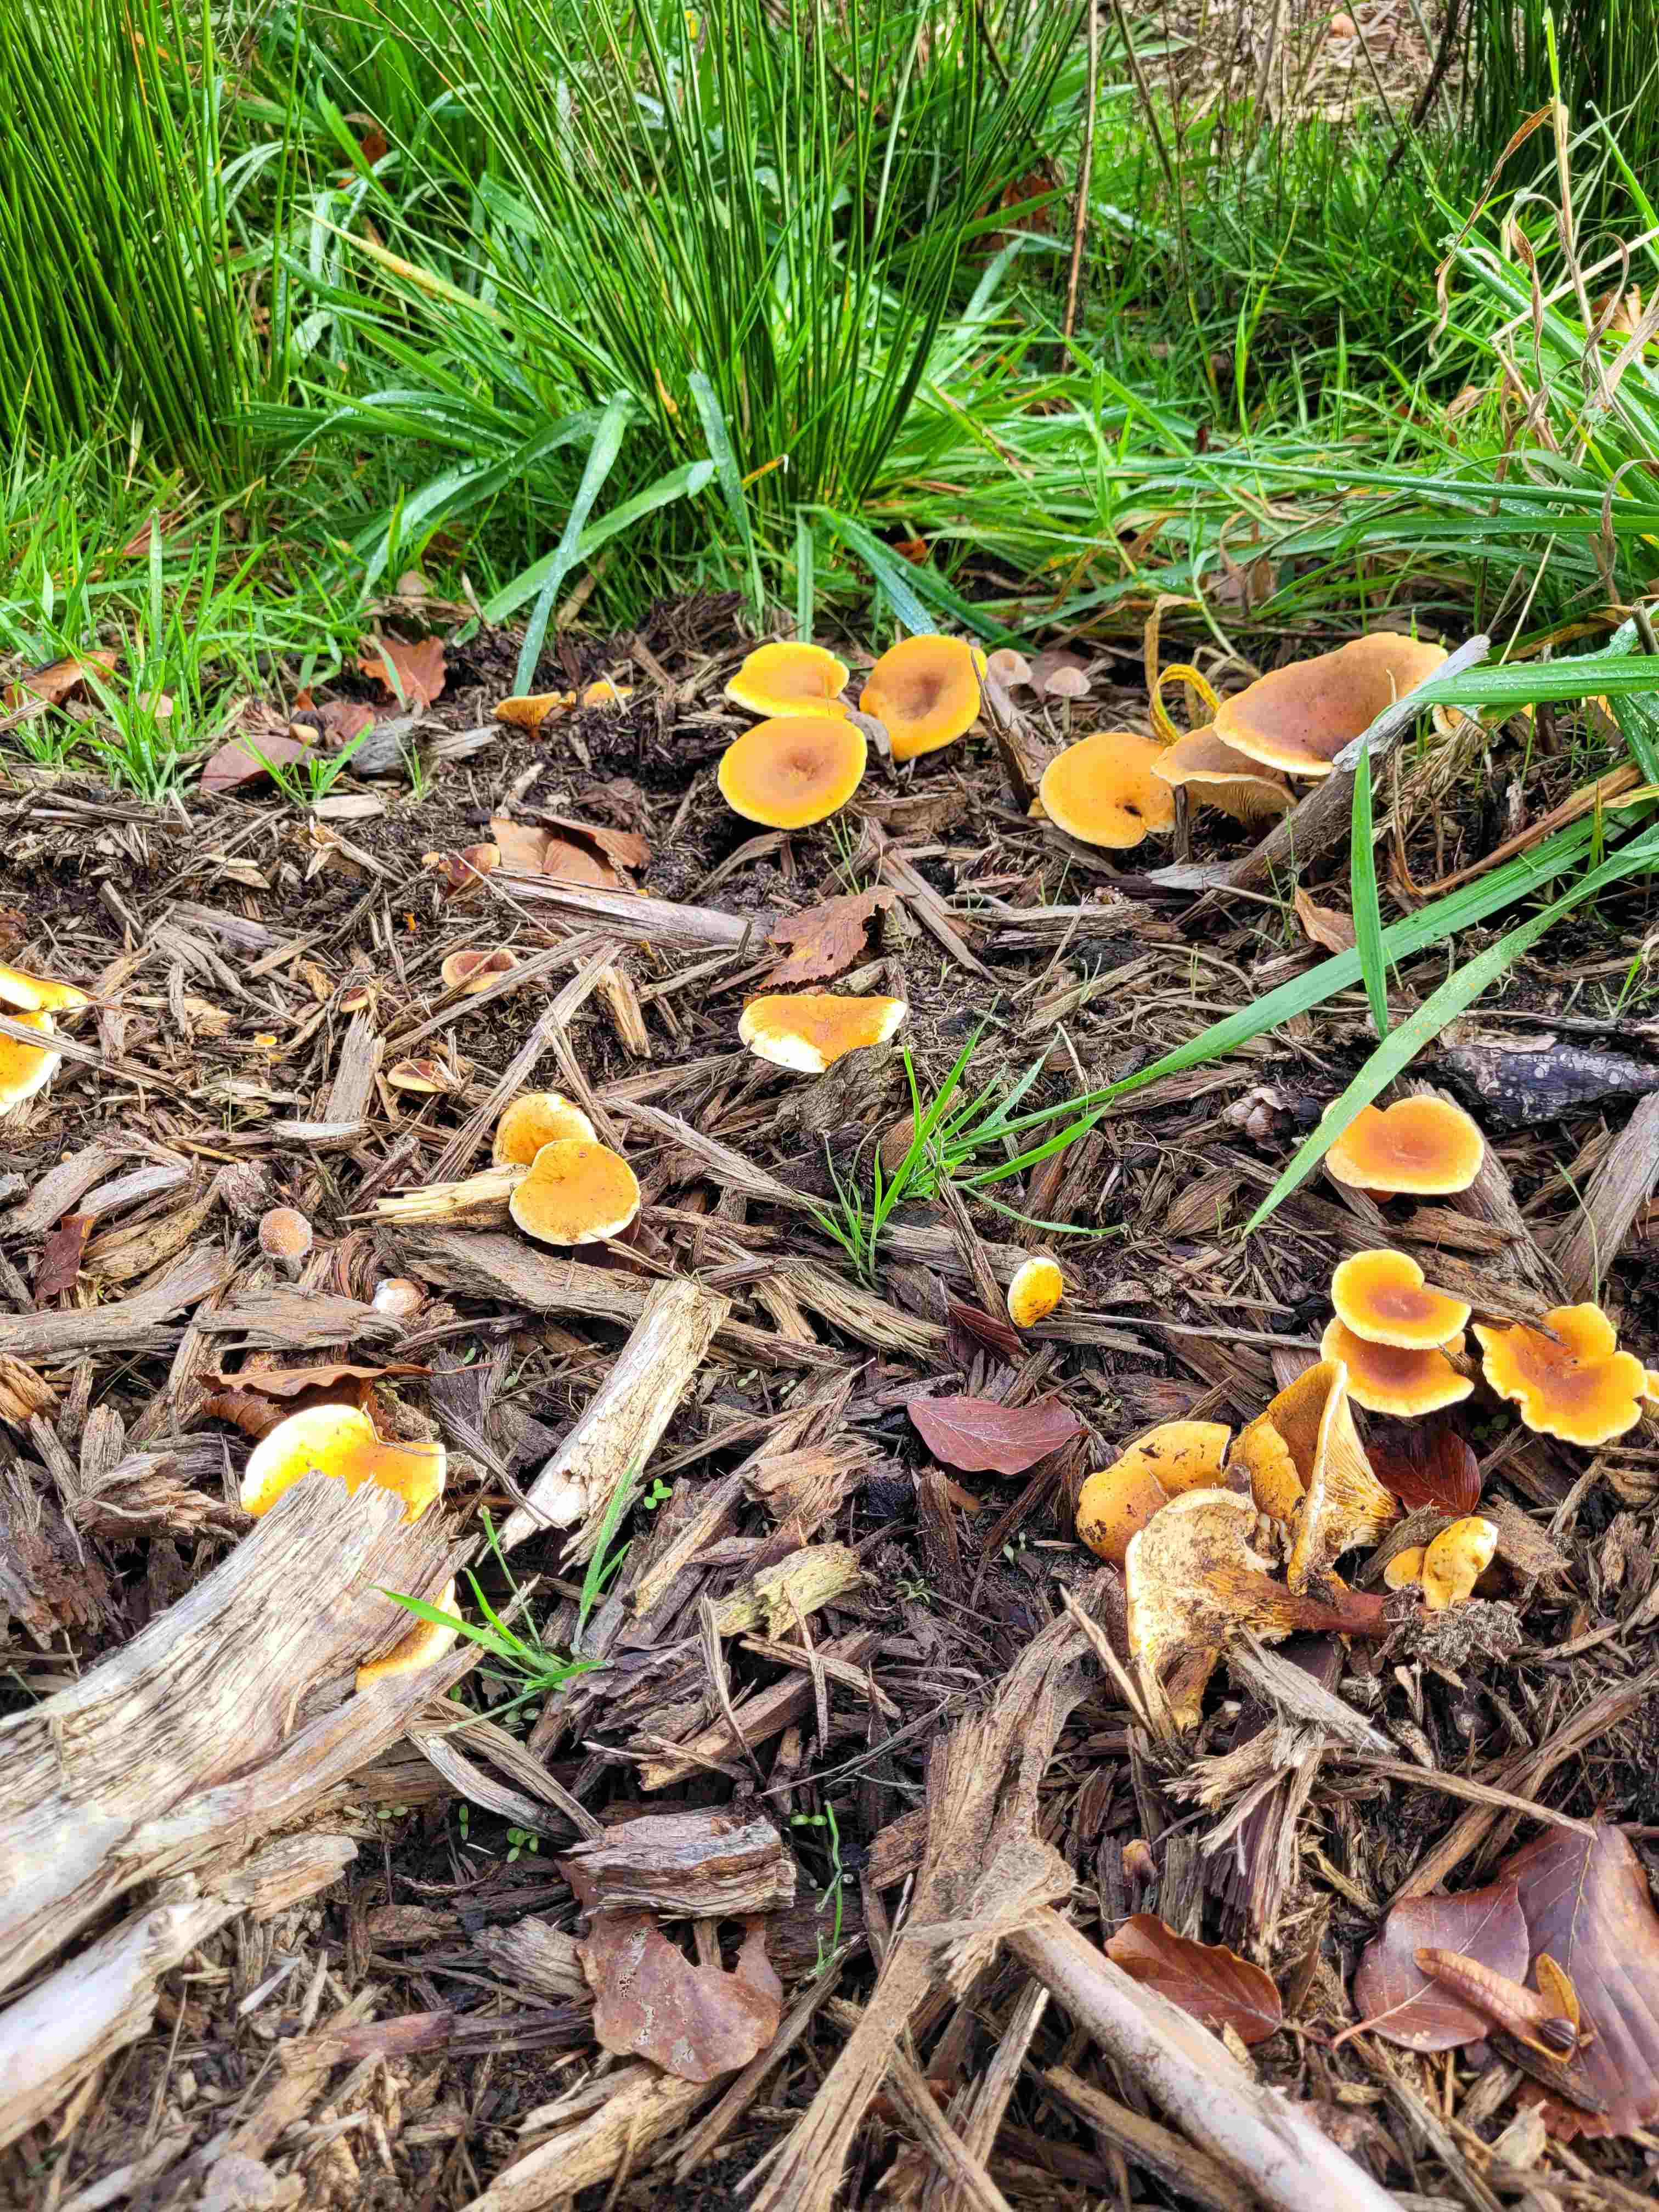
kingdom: Fungi
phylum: Basidiomycota
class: Agaricomycetes
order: Boletales
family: Hygrophoropsidaceae
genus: Hygrophoropsis
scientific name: Hygrophoropsis aurantiaca
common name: almindelig orangekantarel
